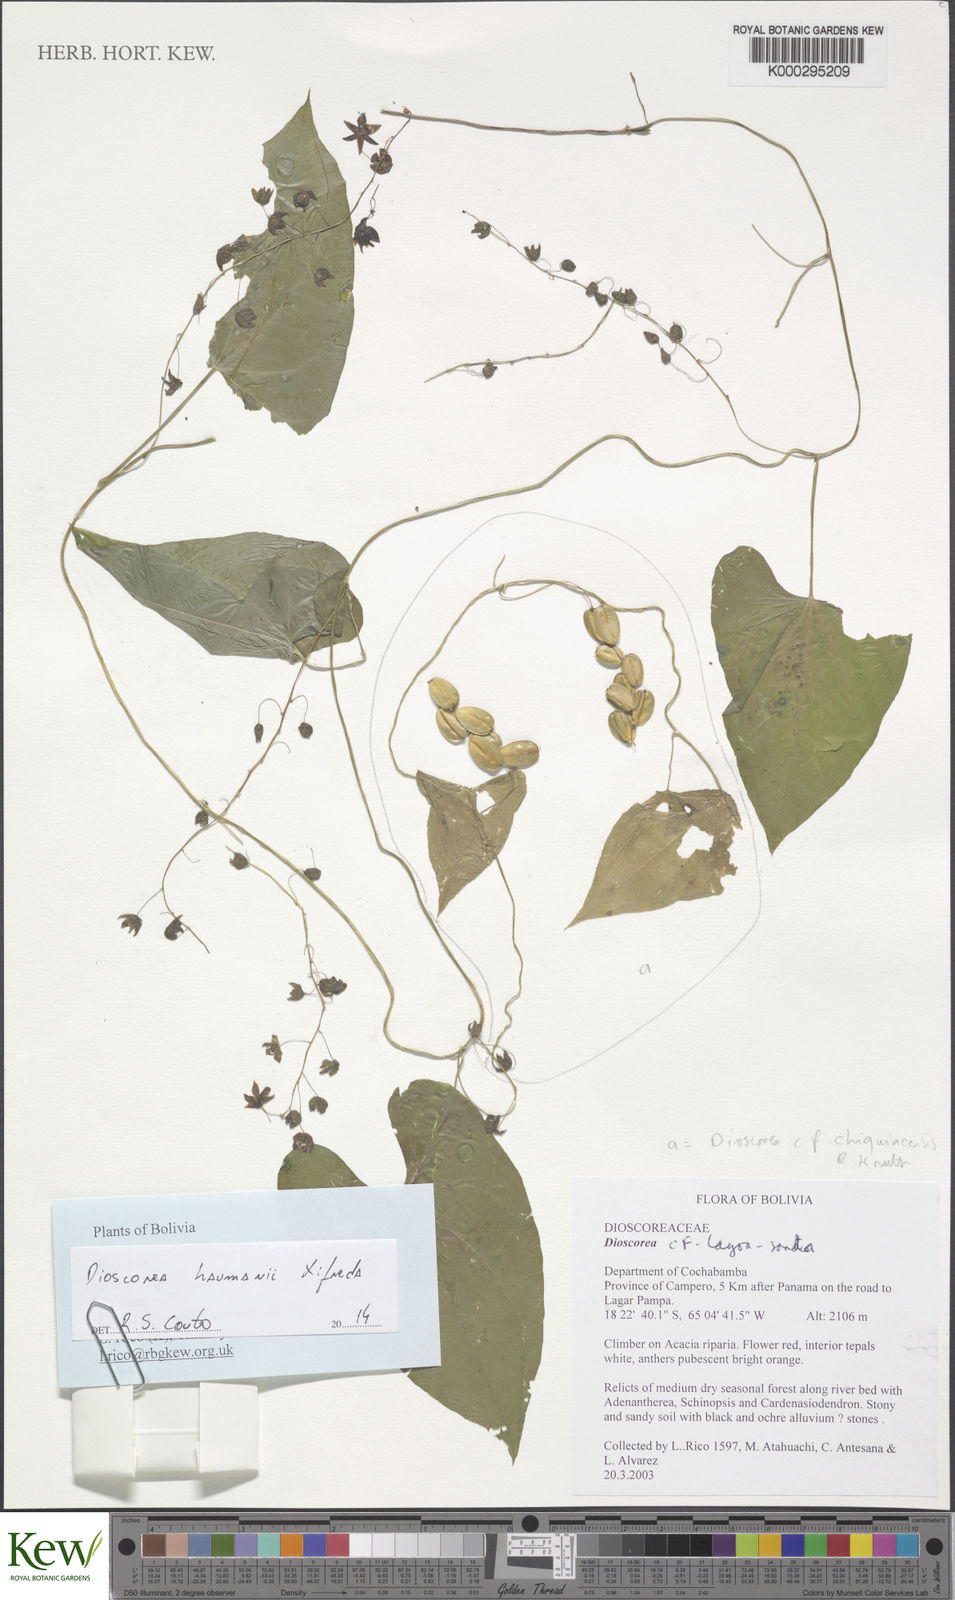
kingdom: Plantae
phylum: Tracheophyta
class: Liliopsida
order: Dioscoreales
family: Dioscoreaceae
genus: Dioscorea
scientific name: Dioscorea haumanii
